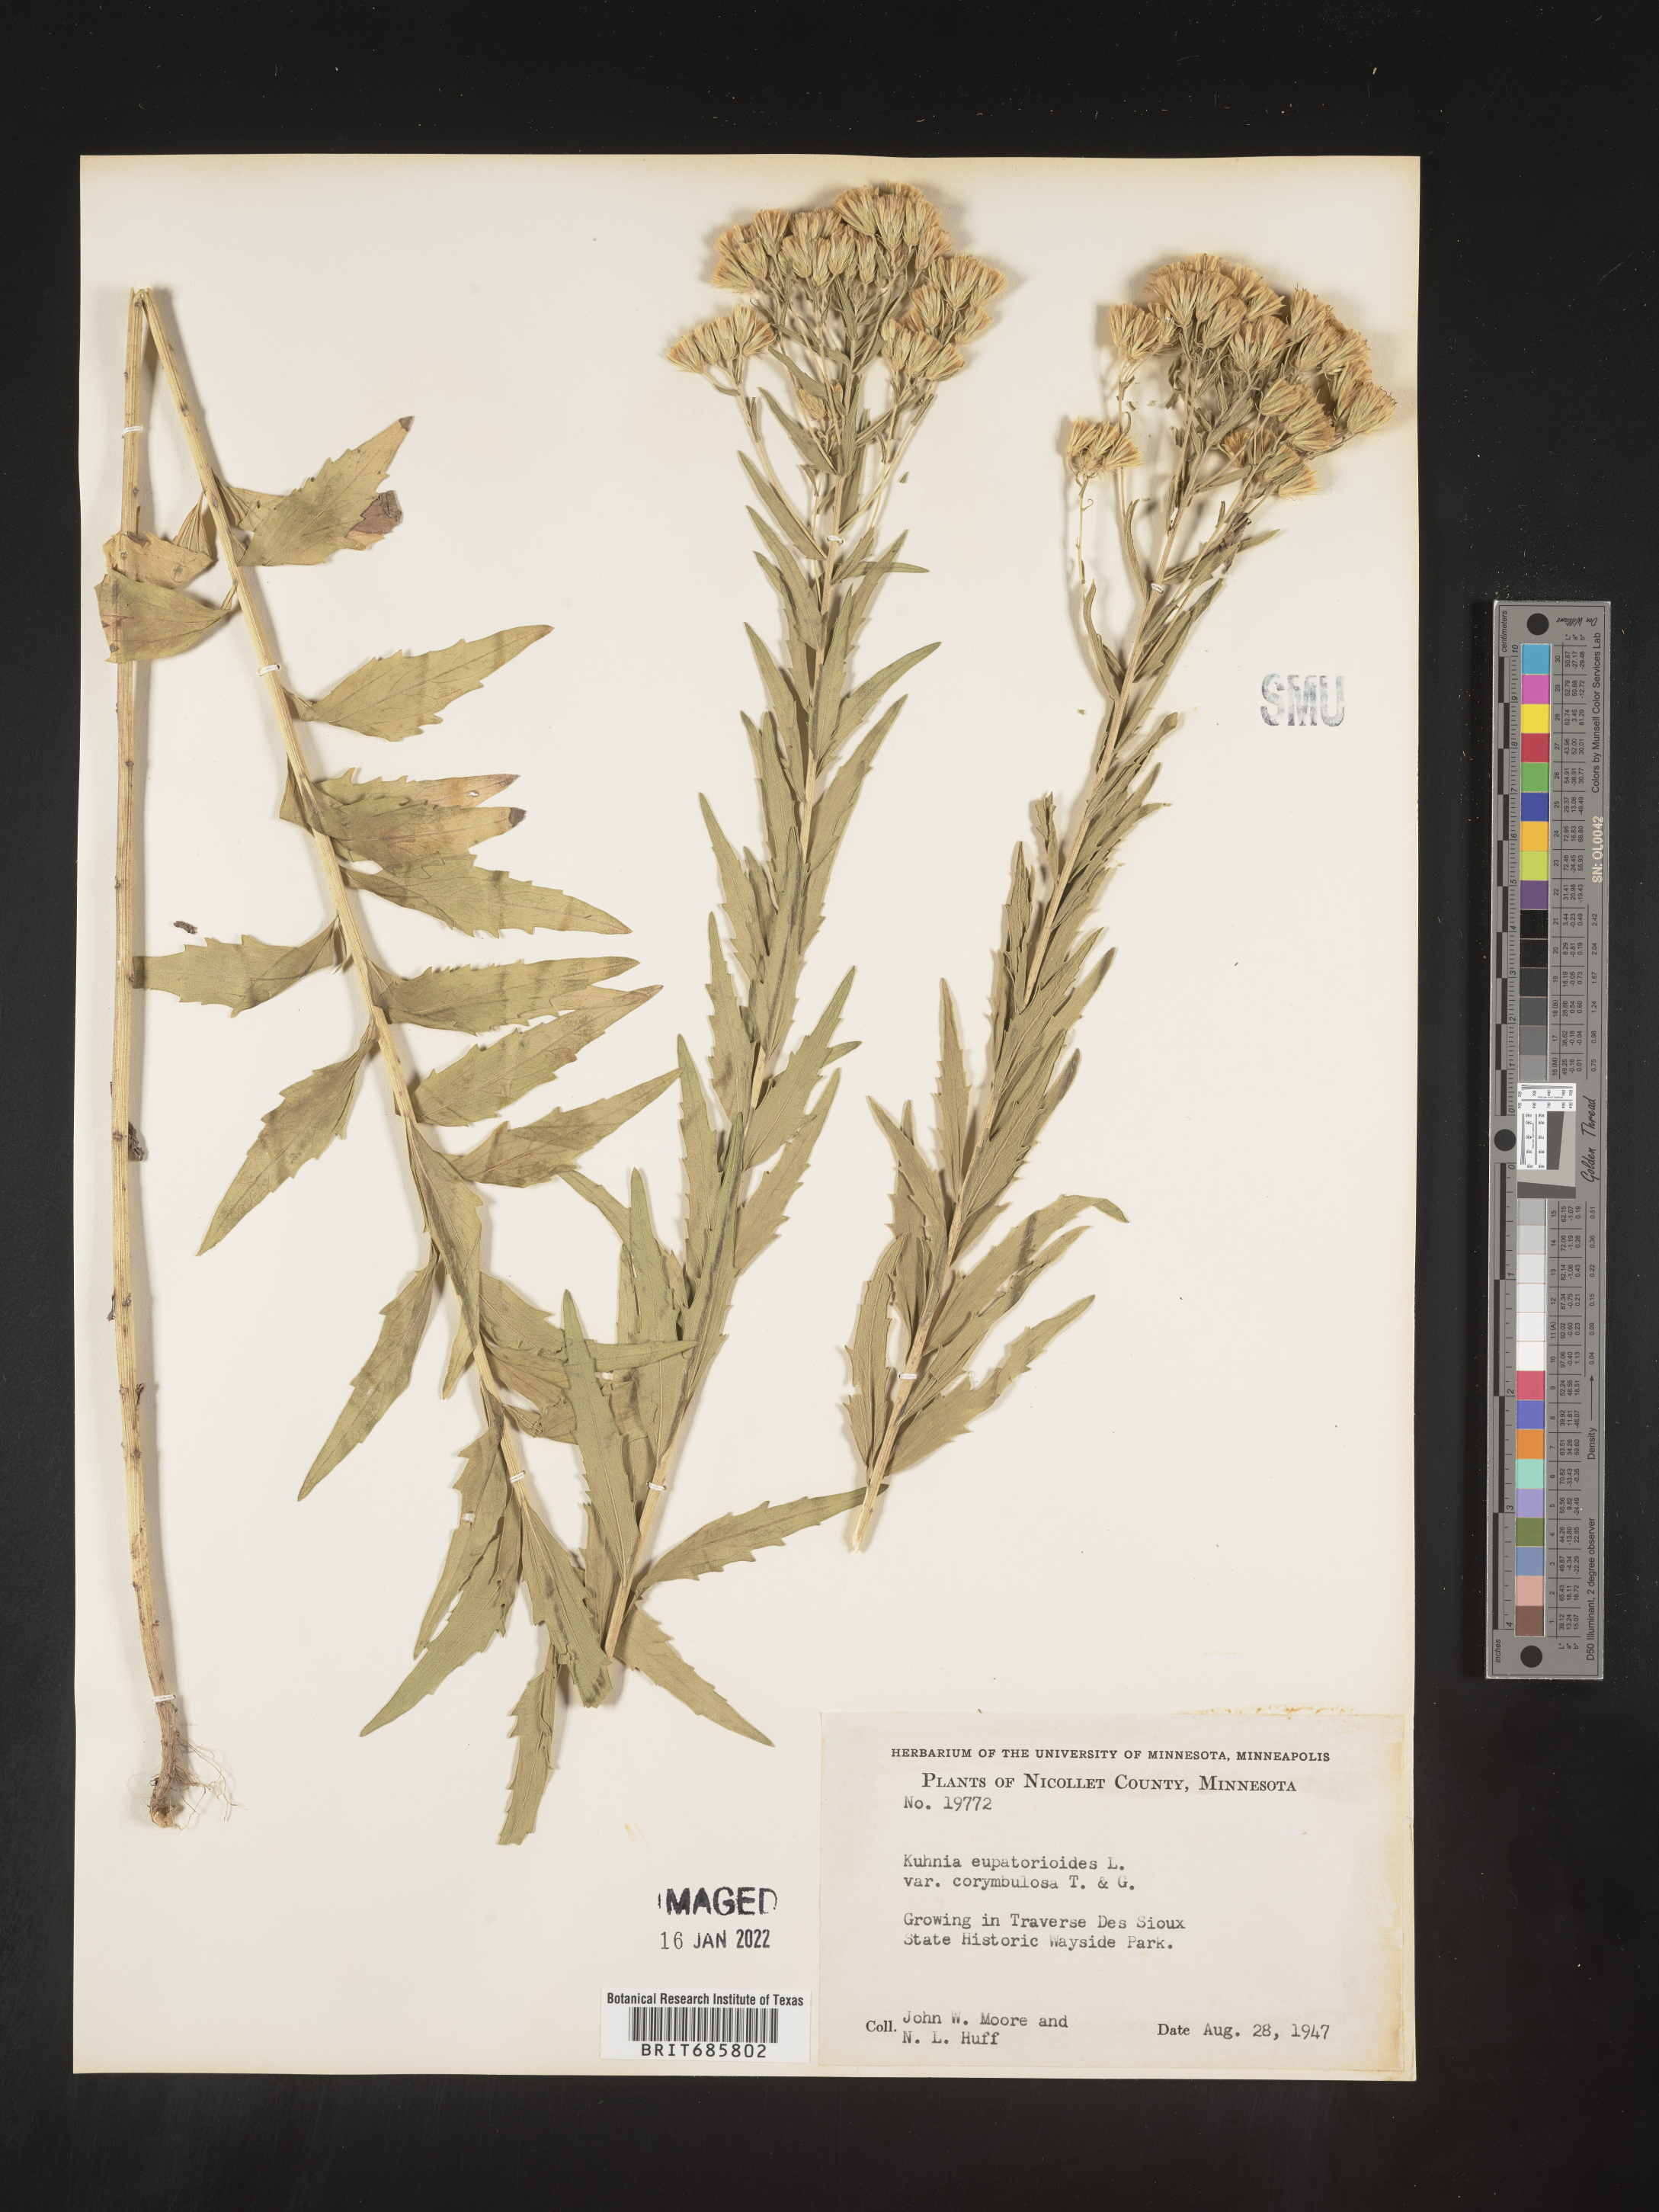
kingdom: Plantae
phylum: Tracheophyta
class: Magnoliopsida
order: Asterales
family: Asteraceae
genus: Brickellia
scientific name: Brickellia eupatorioides
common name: False boneset
